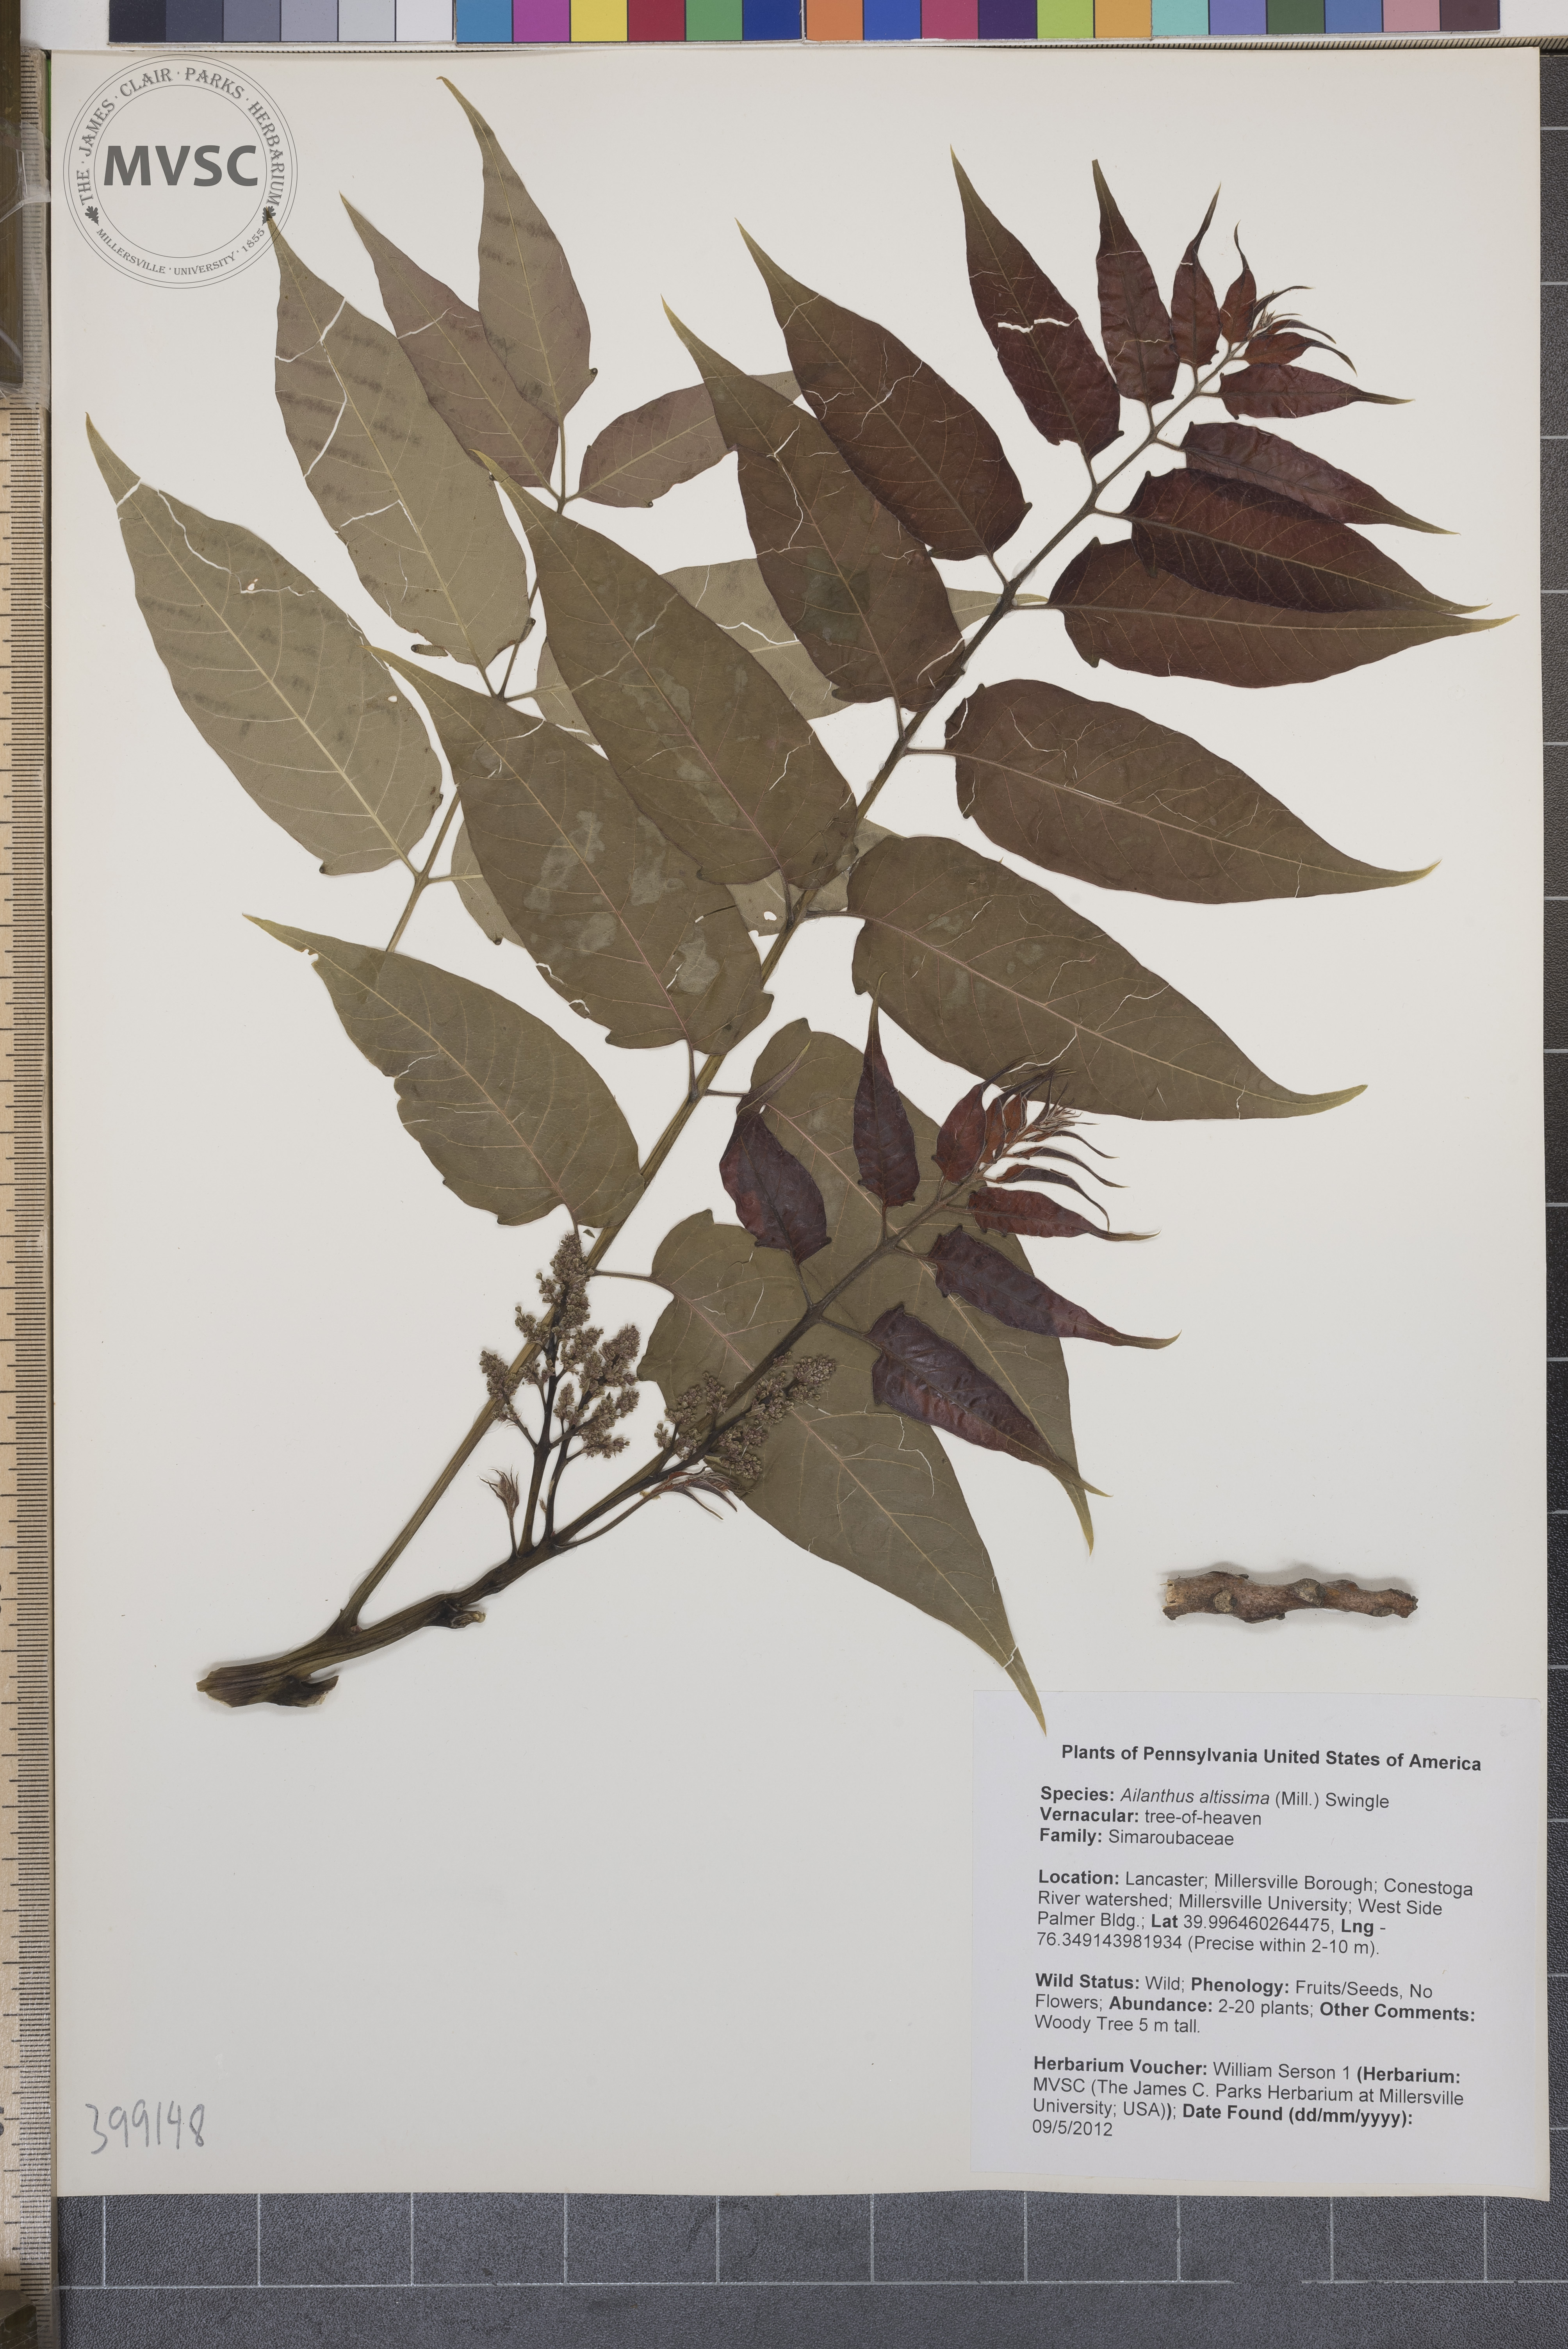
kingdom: Plantae
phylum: Tracheophyta
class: Magnoliopsida
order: Sapindales
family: Simaroubaceae
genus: Ailanthus
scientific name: Ailanthus altissima
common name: Tree-of-heaven
